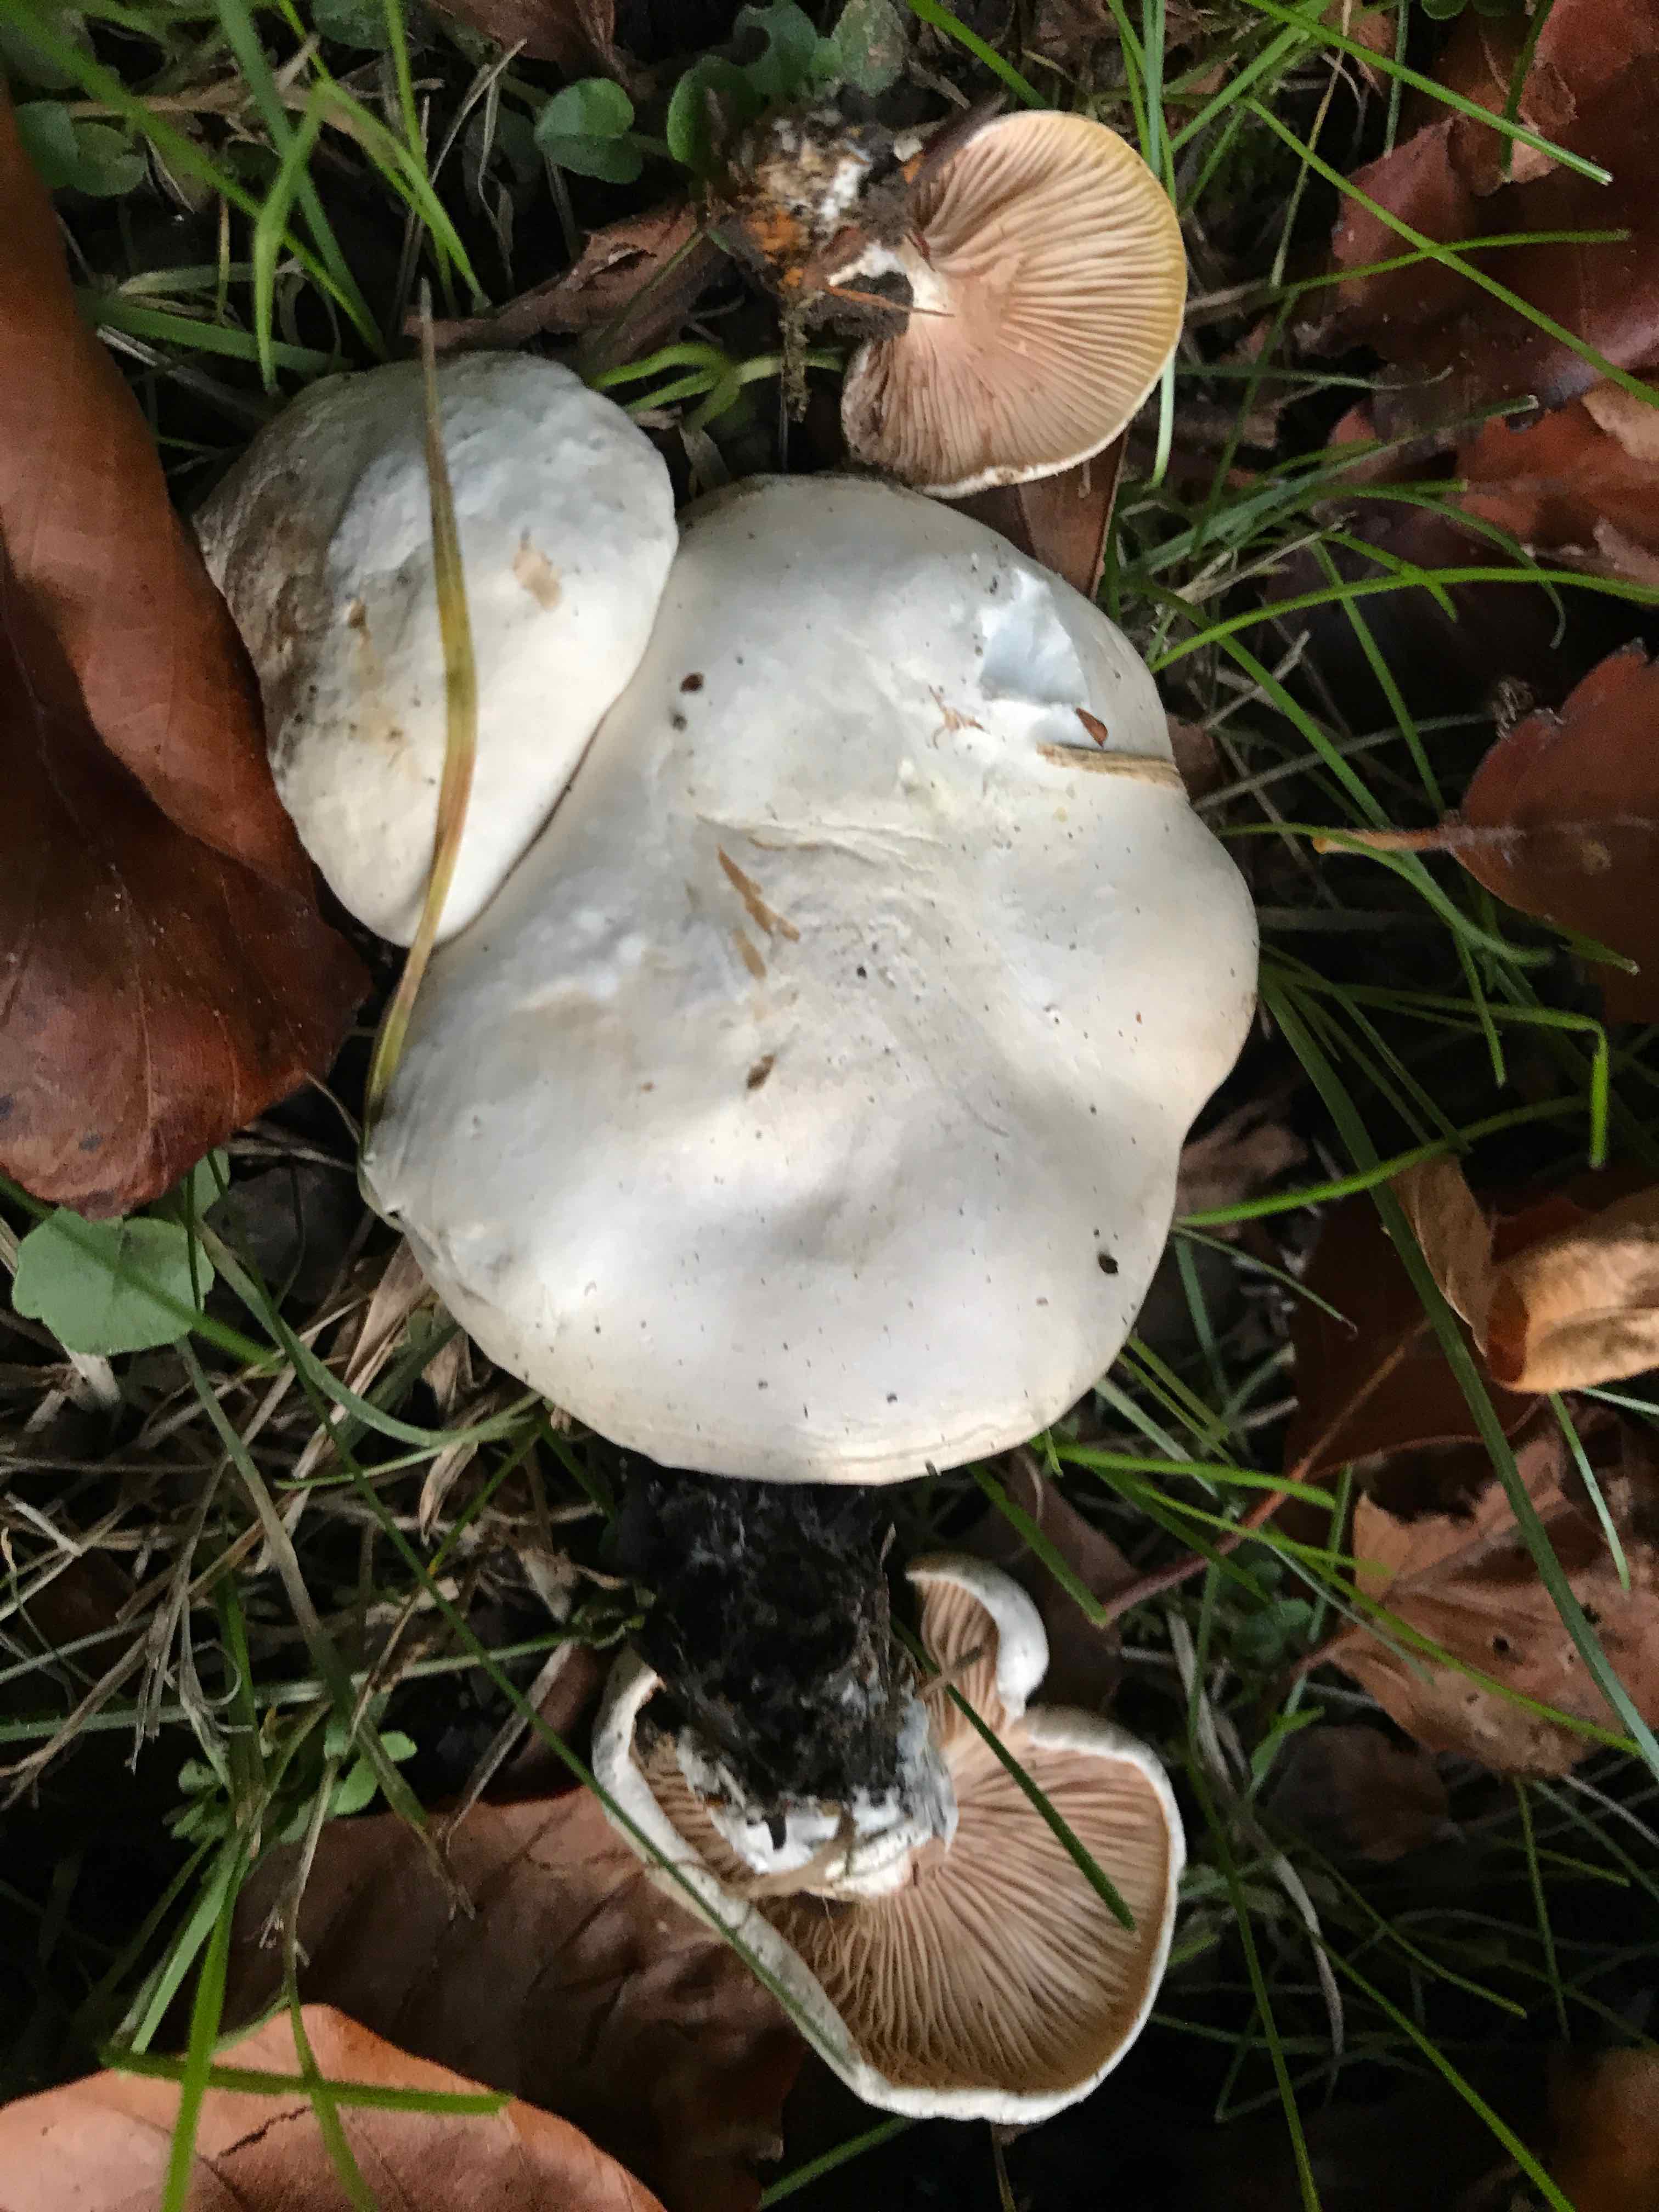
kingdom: Fungi
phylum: Basidiomycota
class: Agaricomycetes
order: Agaricales
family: Entolomataceae
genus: Clitopilus
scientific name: Clitopilus prunulus
